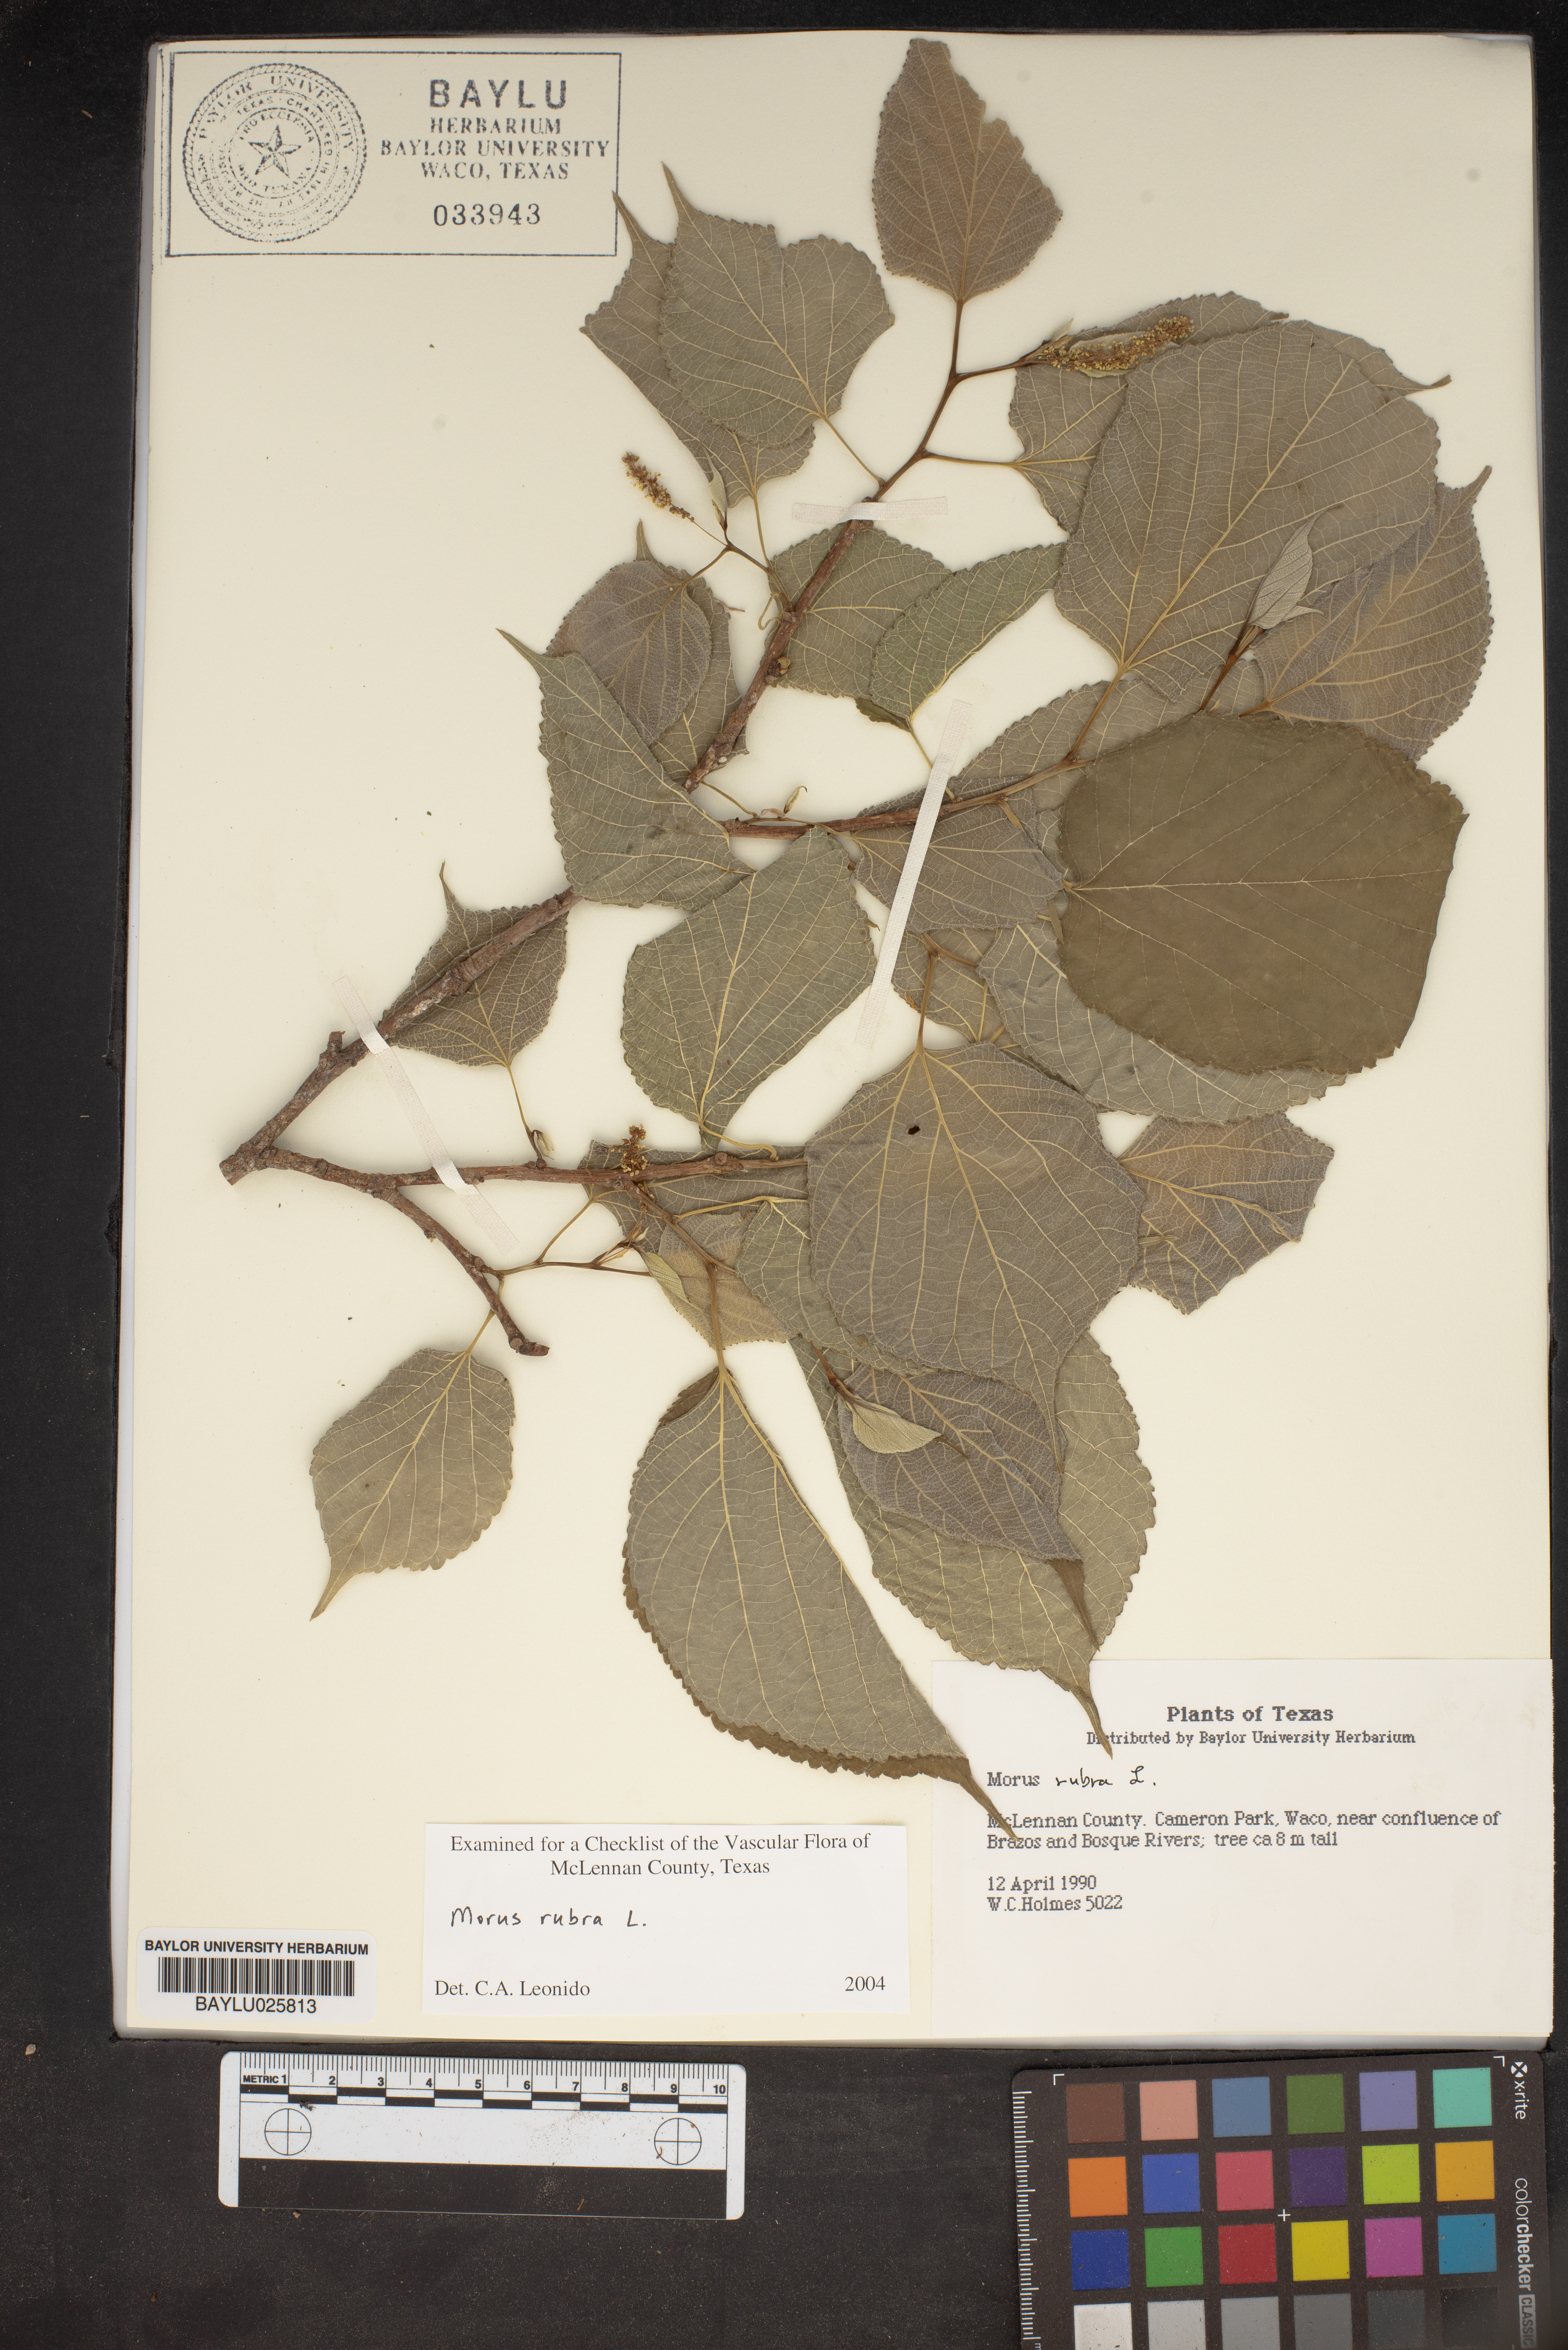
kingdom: Plantae
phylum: Tracheophyta
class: Magnoliopsida
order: Rosales
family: Moraceae
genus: Morus
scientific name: Morus rubra
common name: Red mulberry
